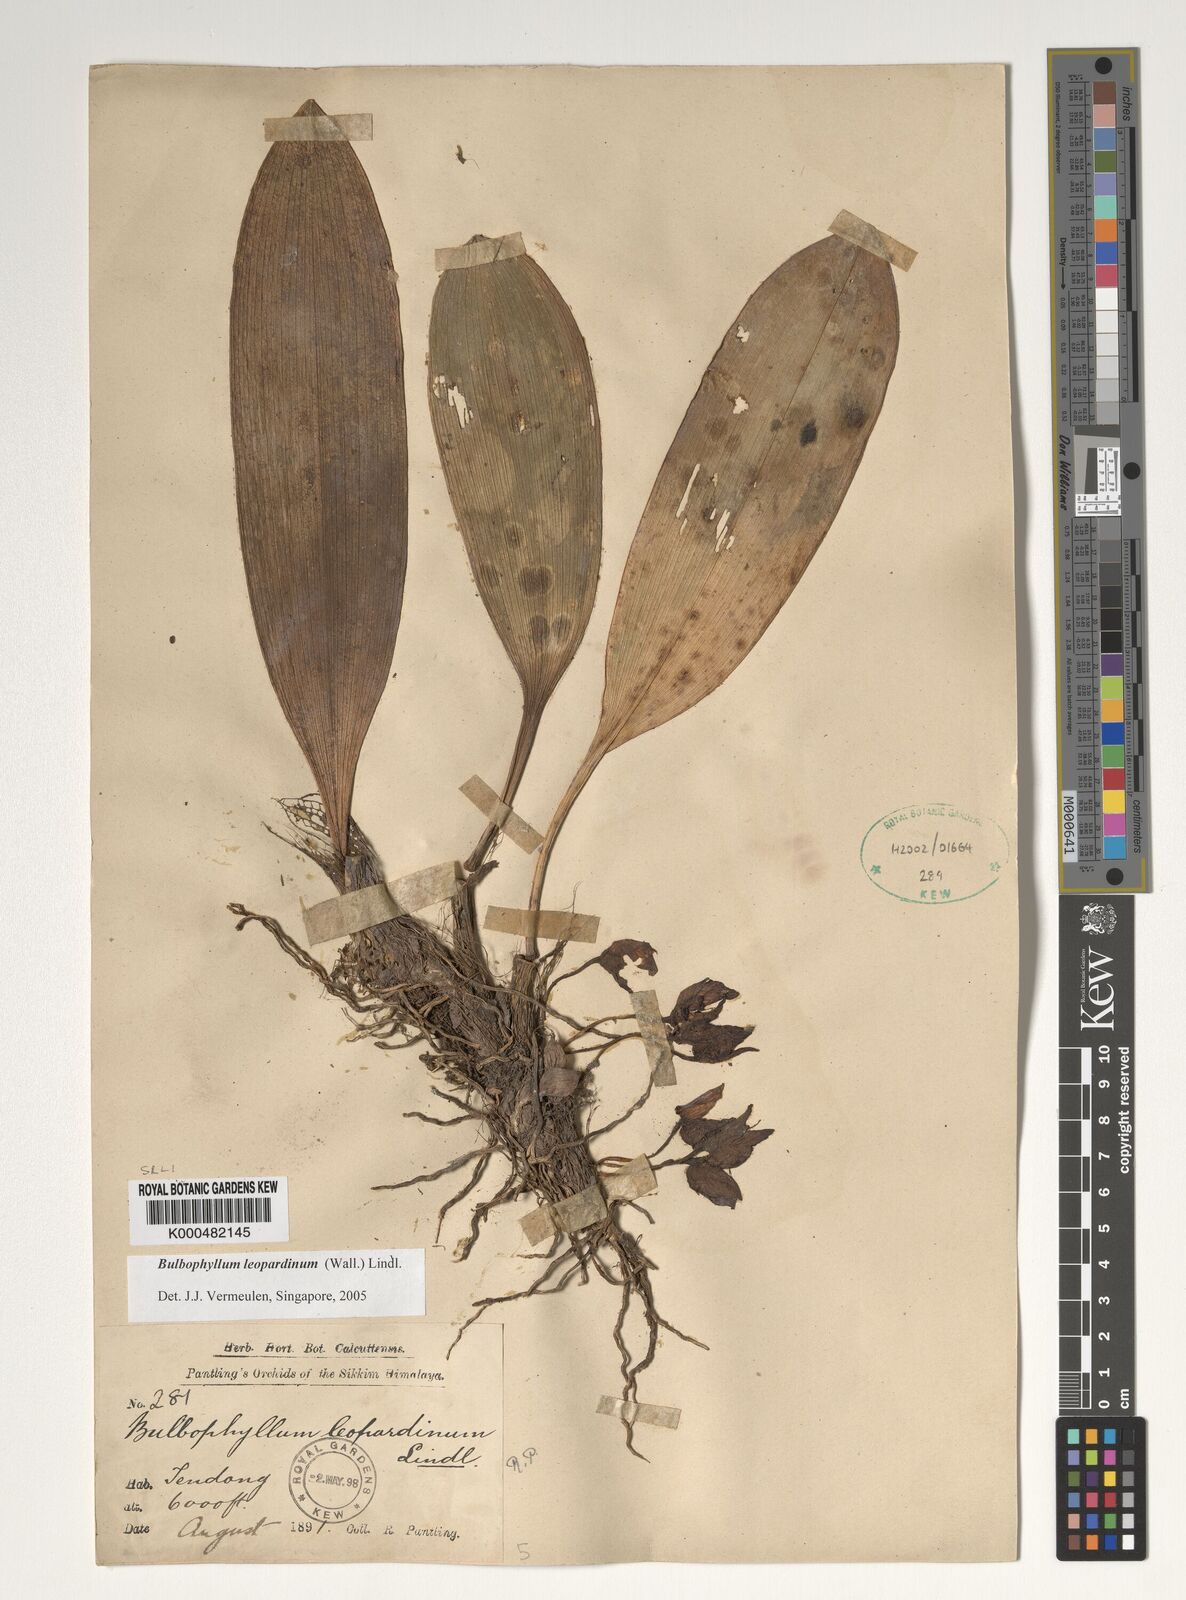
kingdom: Plantae
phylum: Tracheophyta
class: Liliopsida
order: Asparagales
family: Orchidaceae
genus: Bulbophyllum
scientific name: Bulbophyllum leopardinum
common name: Leopard spotted bulbophyllum
